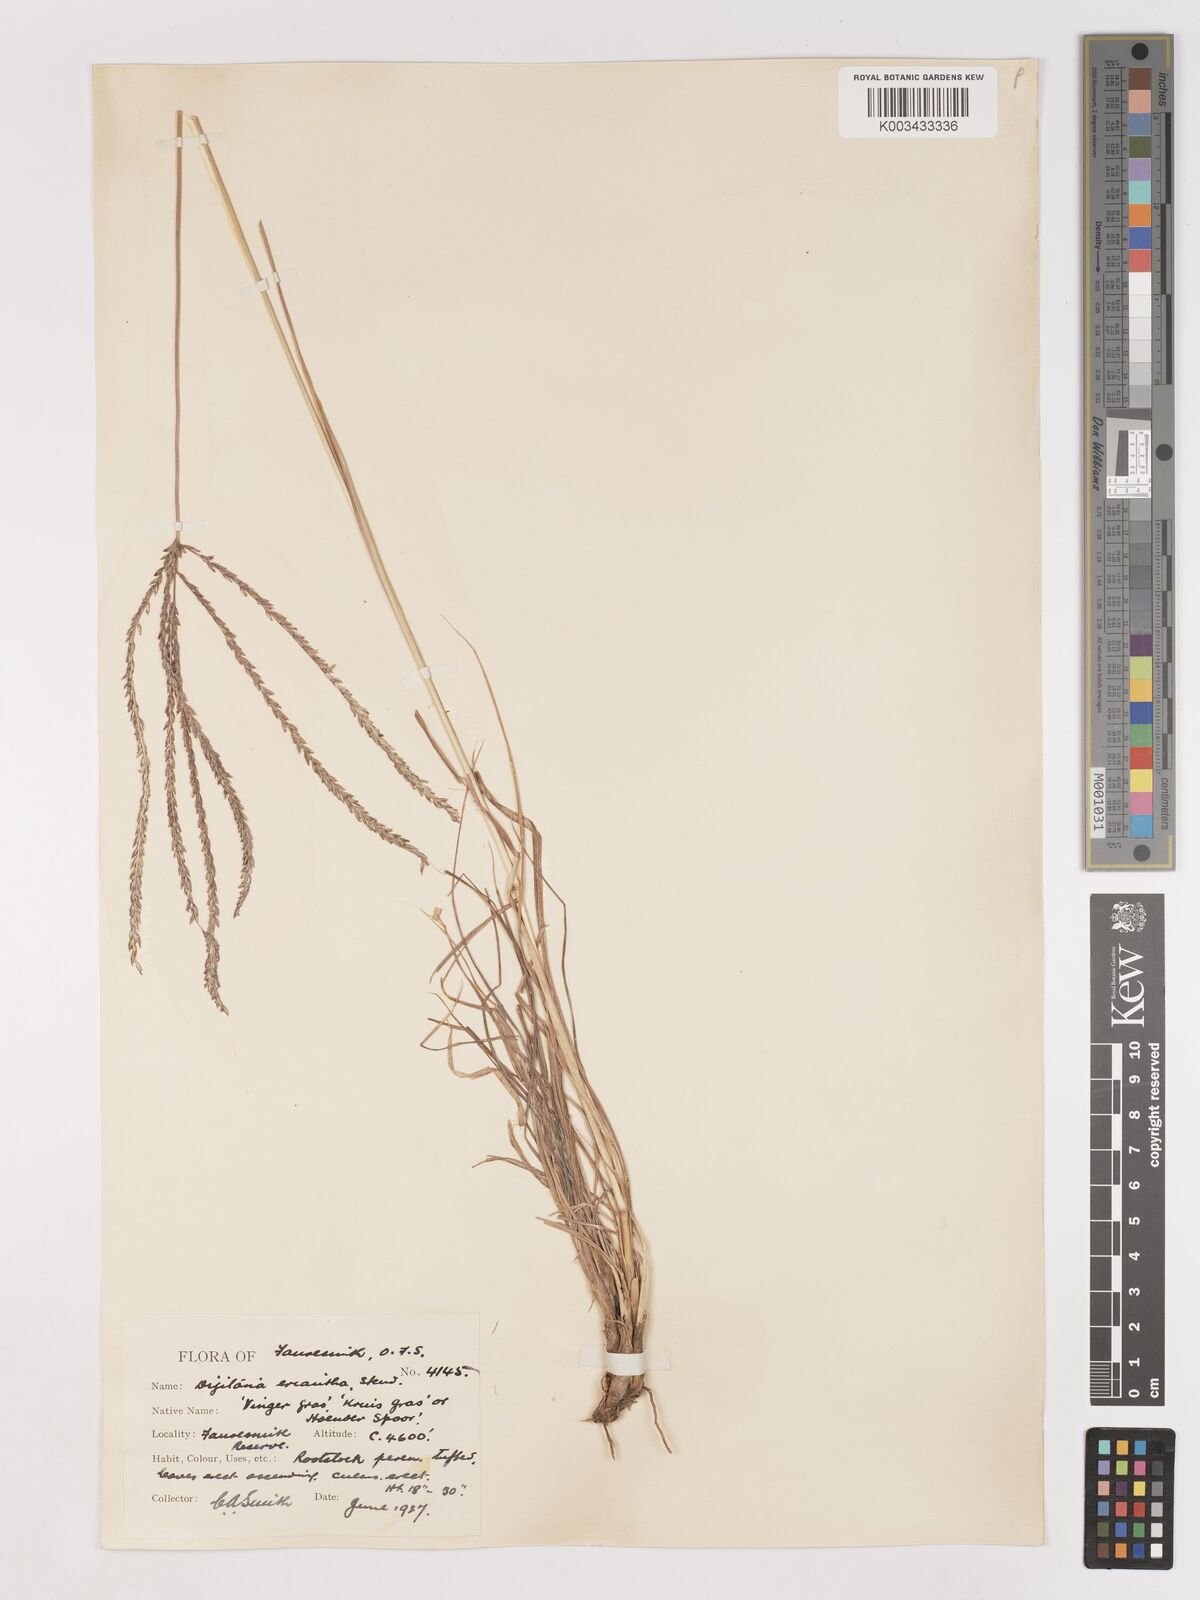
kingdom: Plantae
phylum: Tracheophyta
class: Liliopsida
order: Poales
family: Poaceae
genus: Digitaria
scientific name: Digitaria eriantha
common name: Digitgrass
